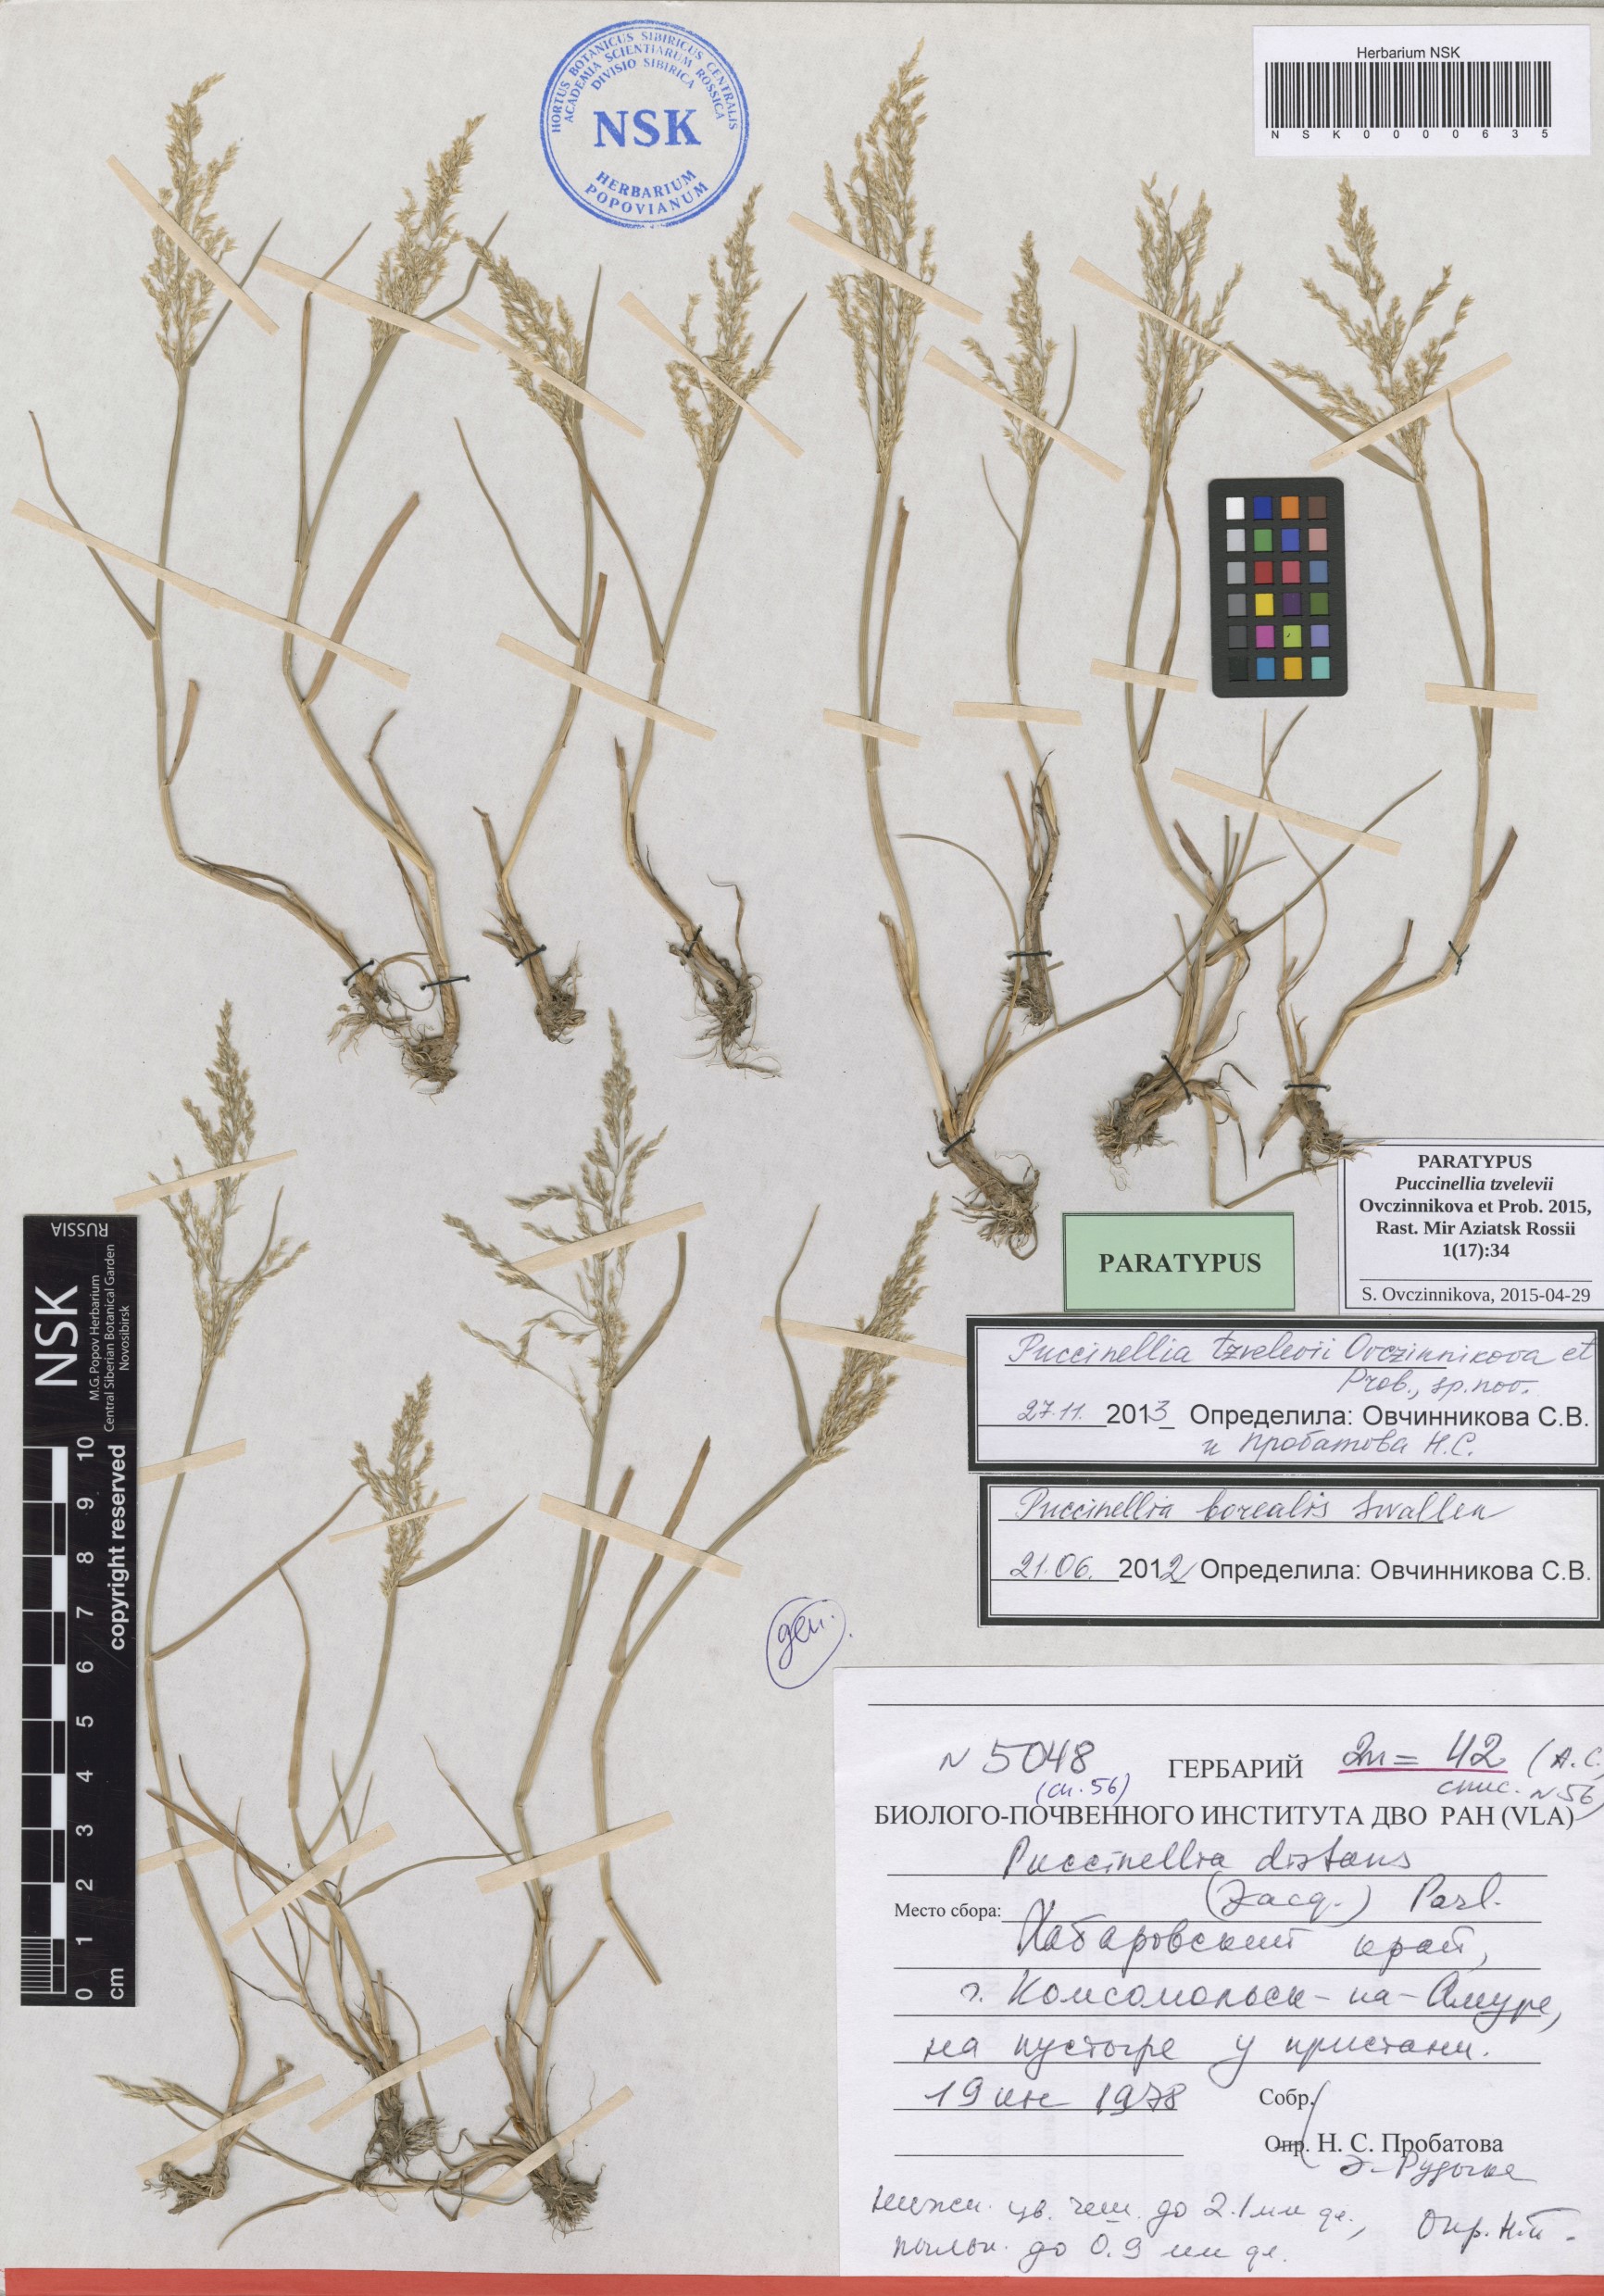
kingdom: Plantae
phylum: Tracheophyta
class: Liliopsida
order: Poales
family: Poaceae
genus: Puccinellia
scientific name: Puccinellia tzvelevii
